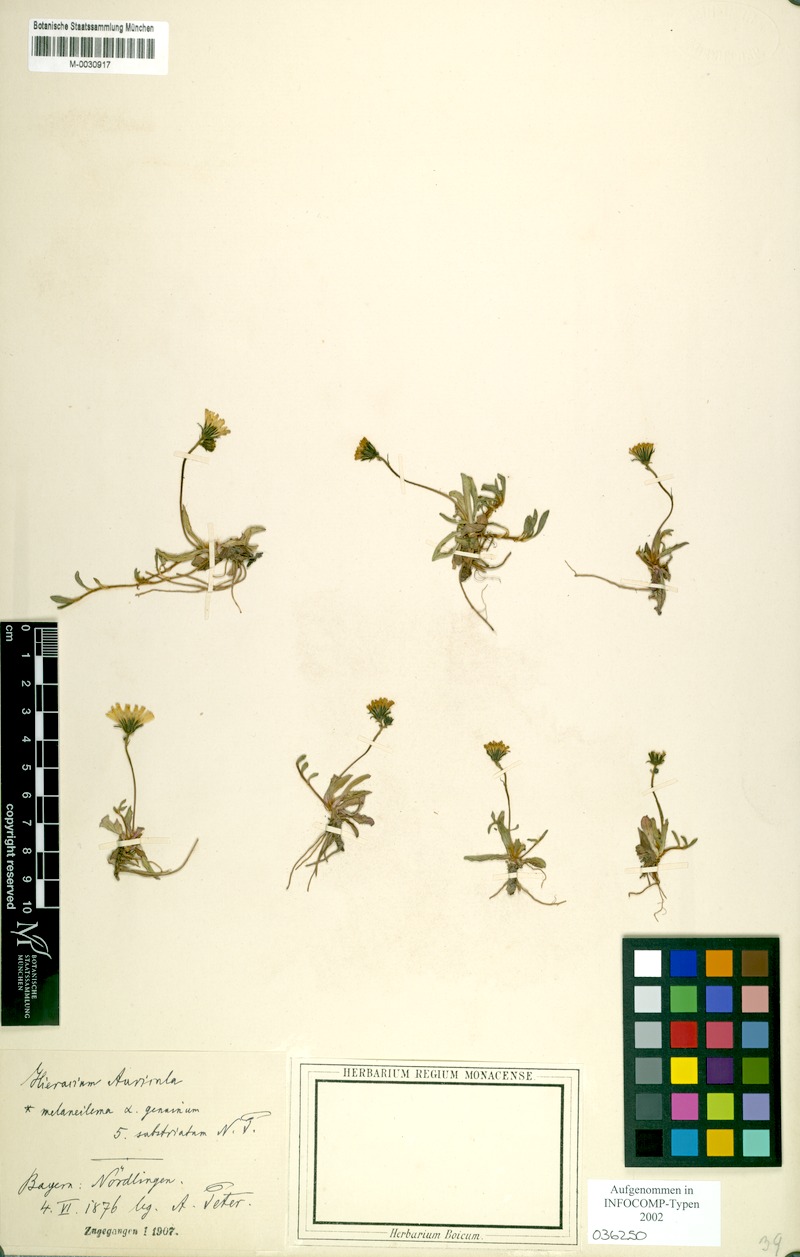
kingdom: Plantae
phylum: Tracheophyta
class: Magnoliopsida
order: Asterales
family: Asteraceae
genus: Pilosella
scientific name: Pilosella lactucella
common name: Glaucous fox-and-cubs
